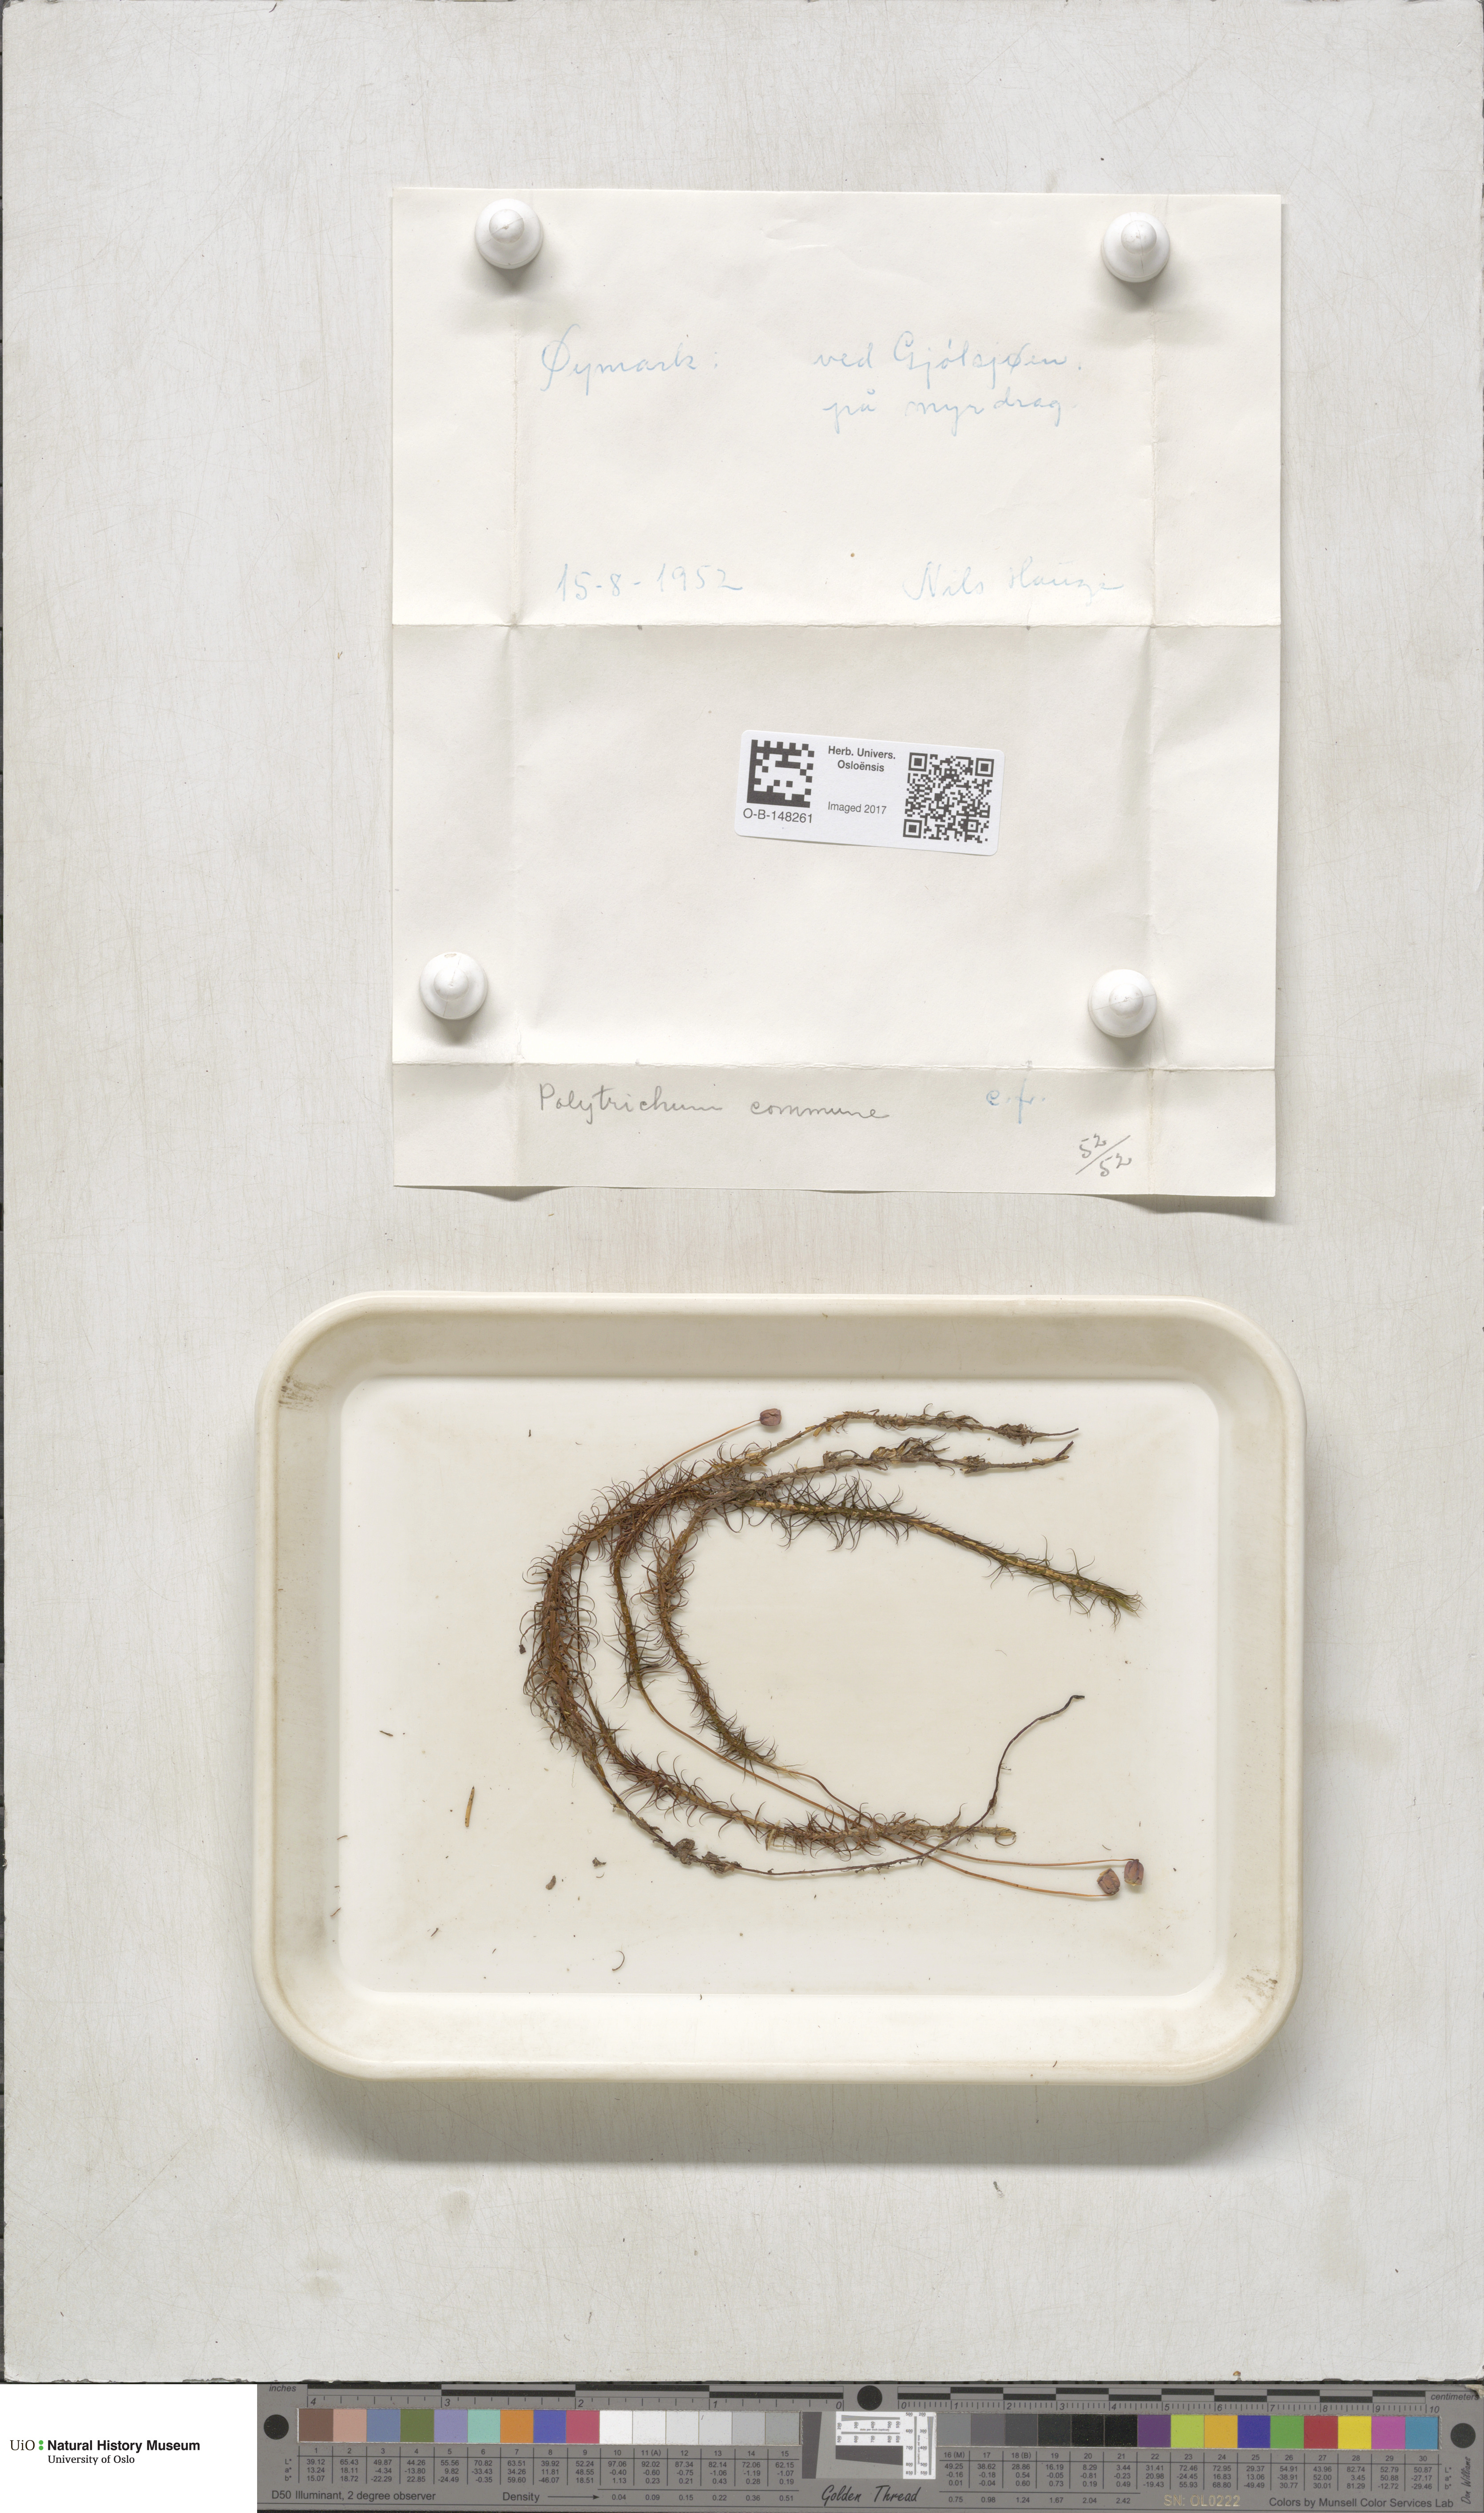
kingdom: Plantae
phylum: Bryophyta
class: Polytrichopsida
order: Polytrichales
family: Polytrichaceae
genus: Polytrichum
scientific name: Polytrichum commune
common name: Common haircap
